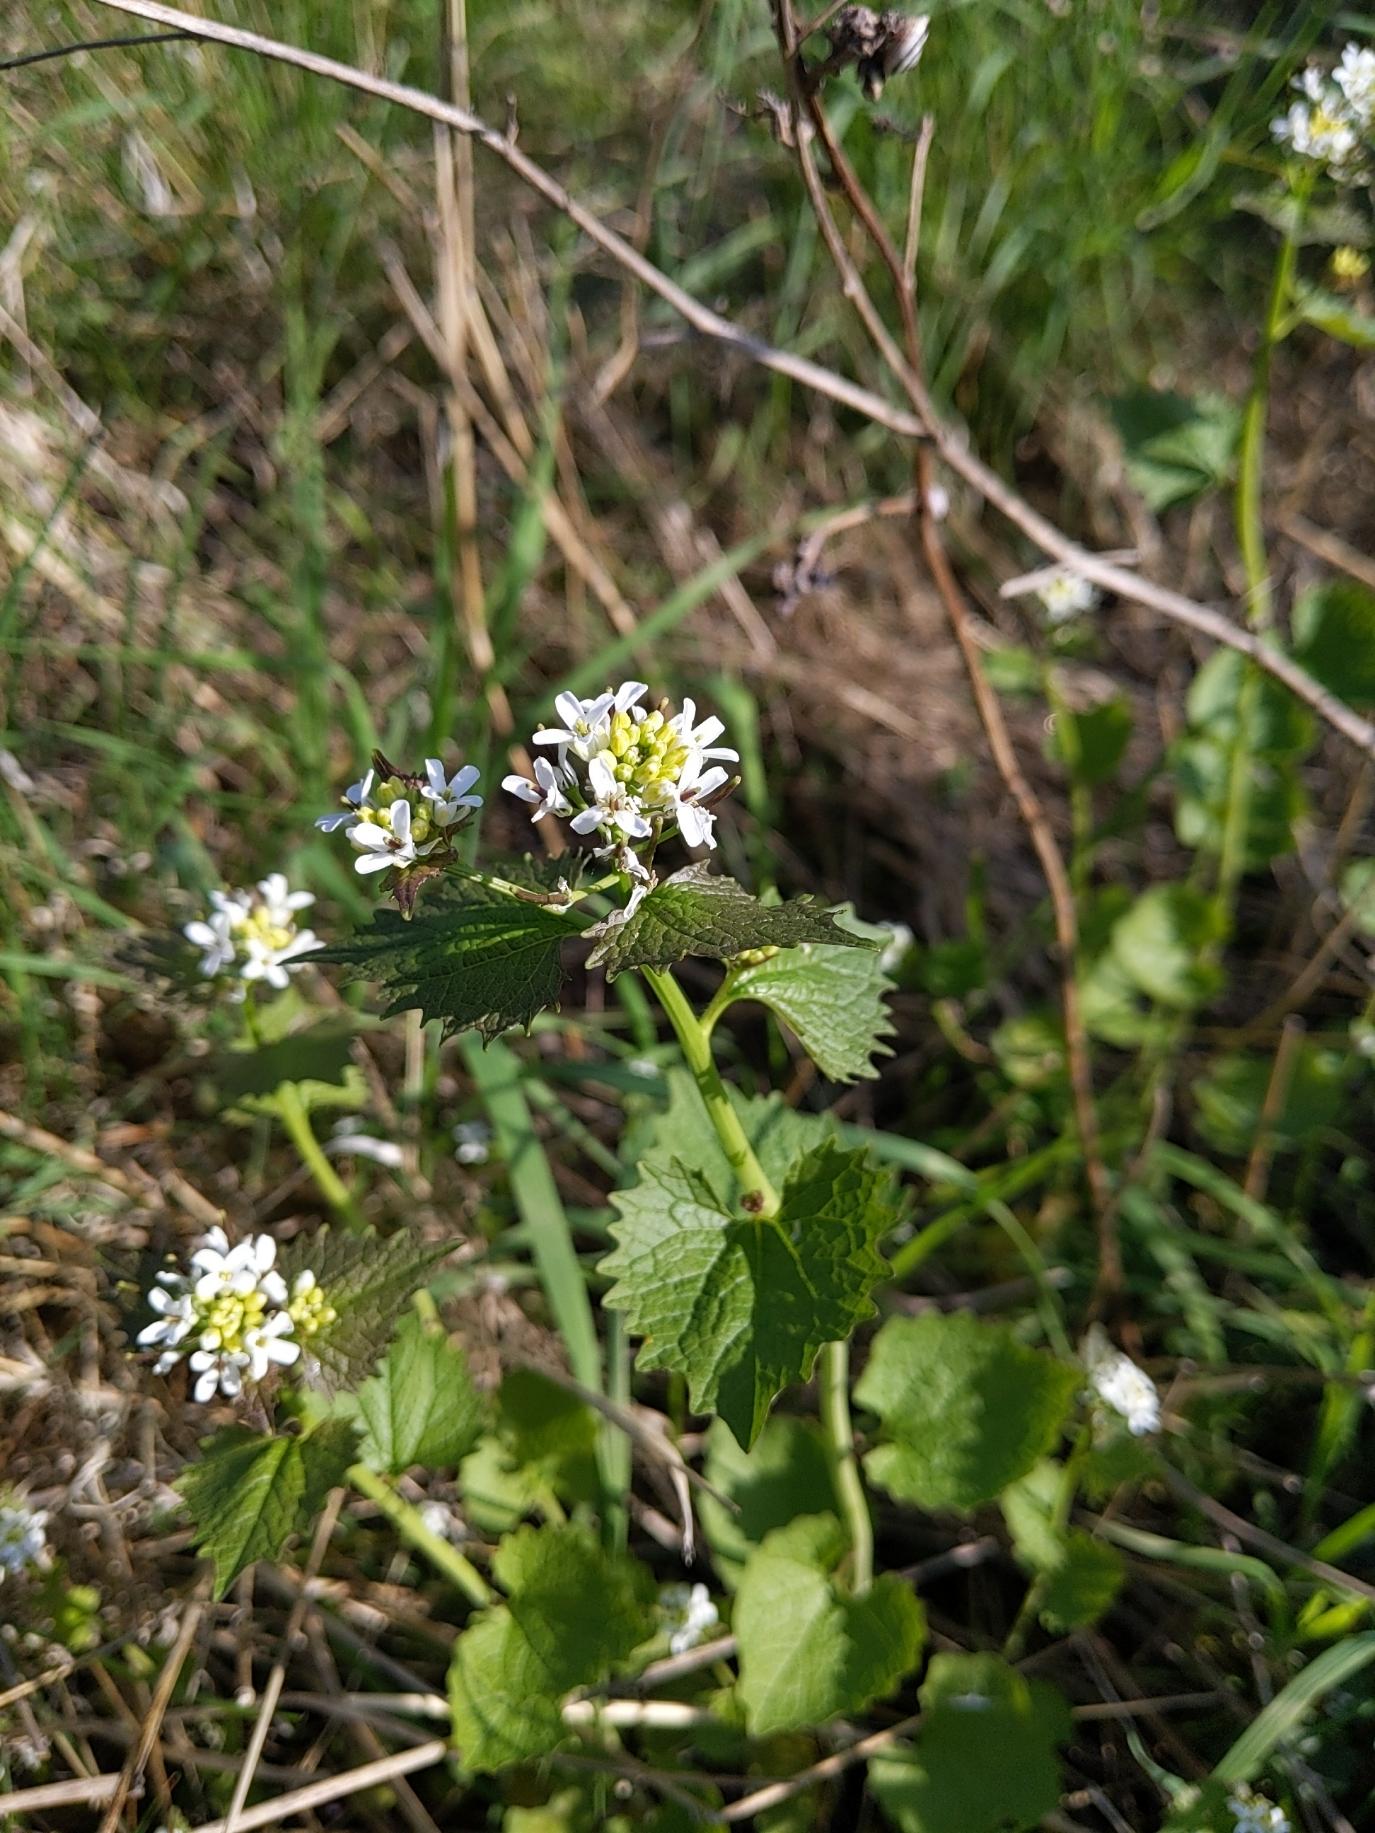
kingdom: Plantae
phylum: Tracheophyta
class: Magnoliopsida
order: Brassicales
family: Brassicaceae
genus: Alliaria
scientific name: Alliaria petiolata
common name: Løgkarse
